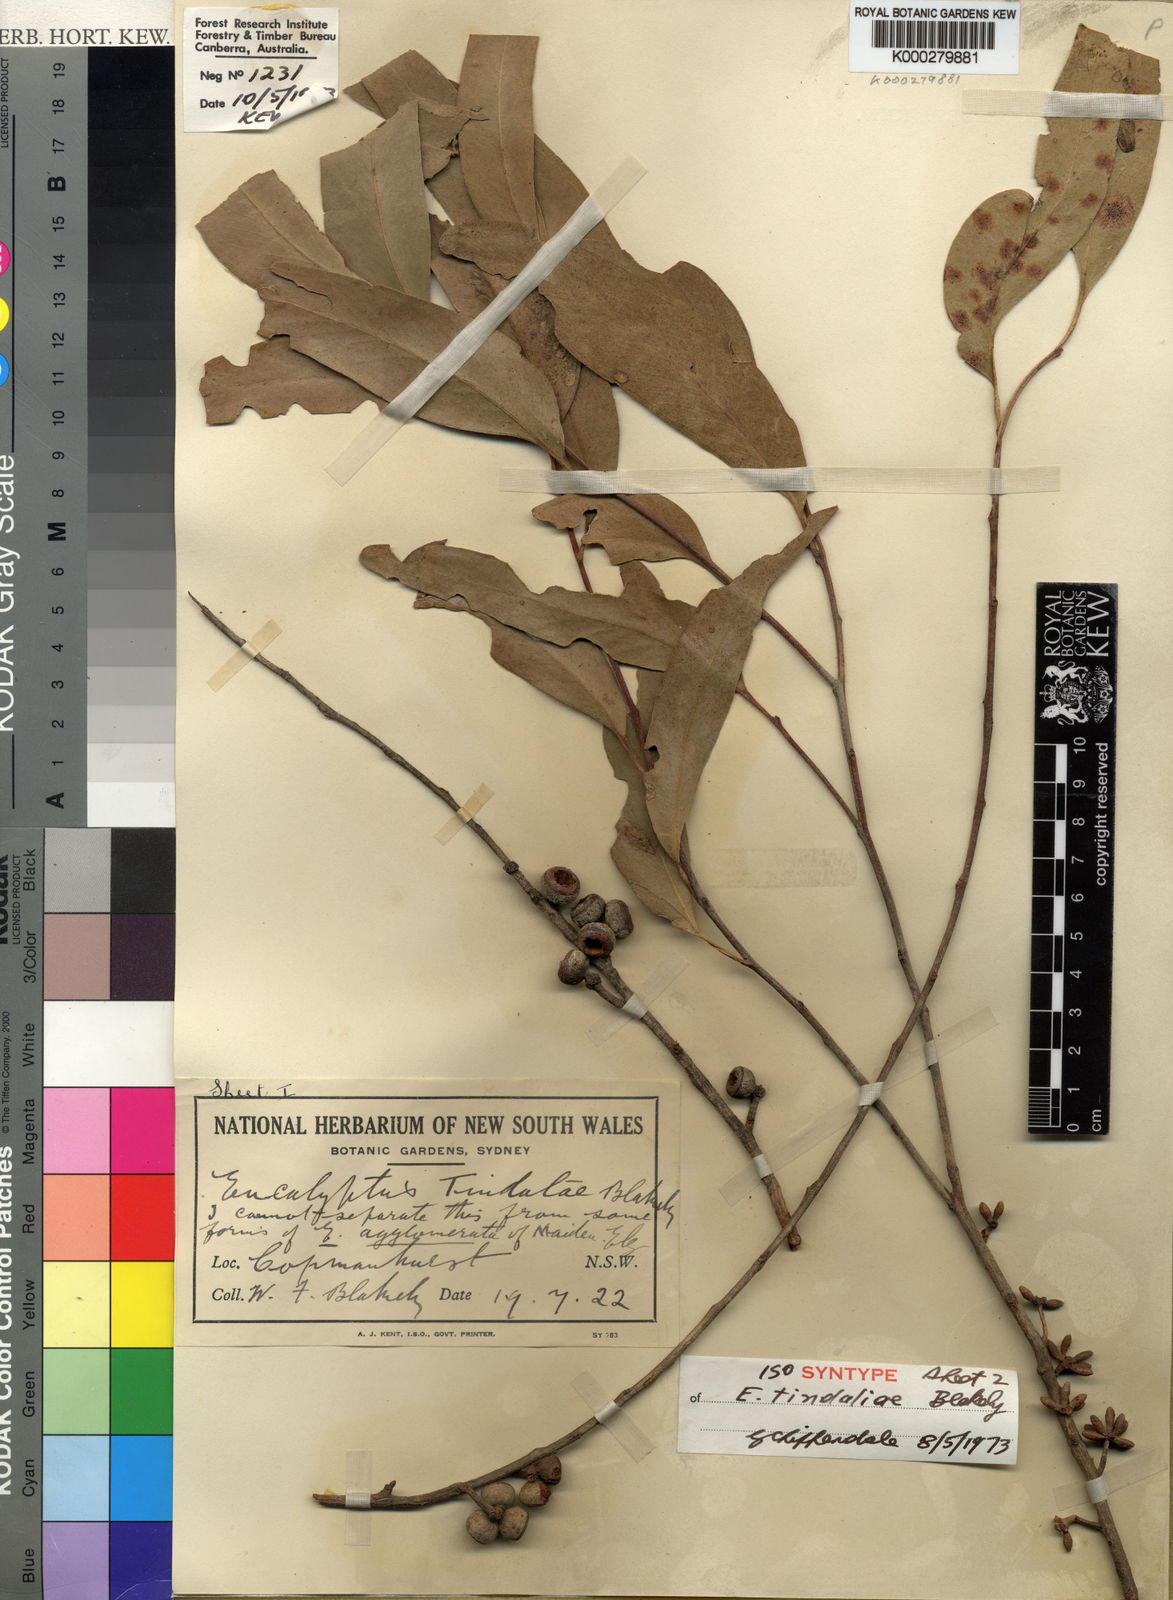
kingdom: Plantae
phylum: Tracheophyta
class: Magnoliopsida
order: Myrtales
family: Myrtaceae
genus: Eucalyptus
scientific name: Eucalyptus tindaliae
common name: Tindales stringybark
